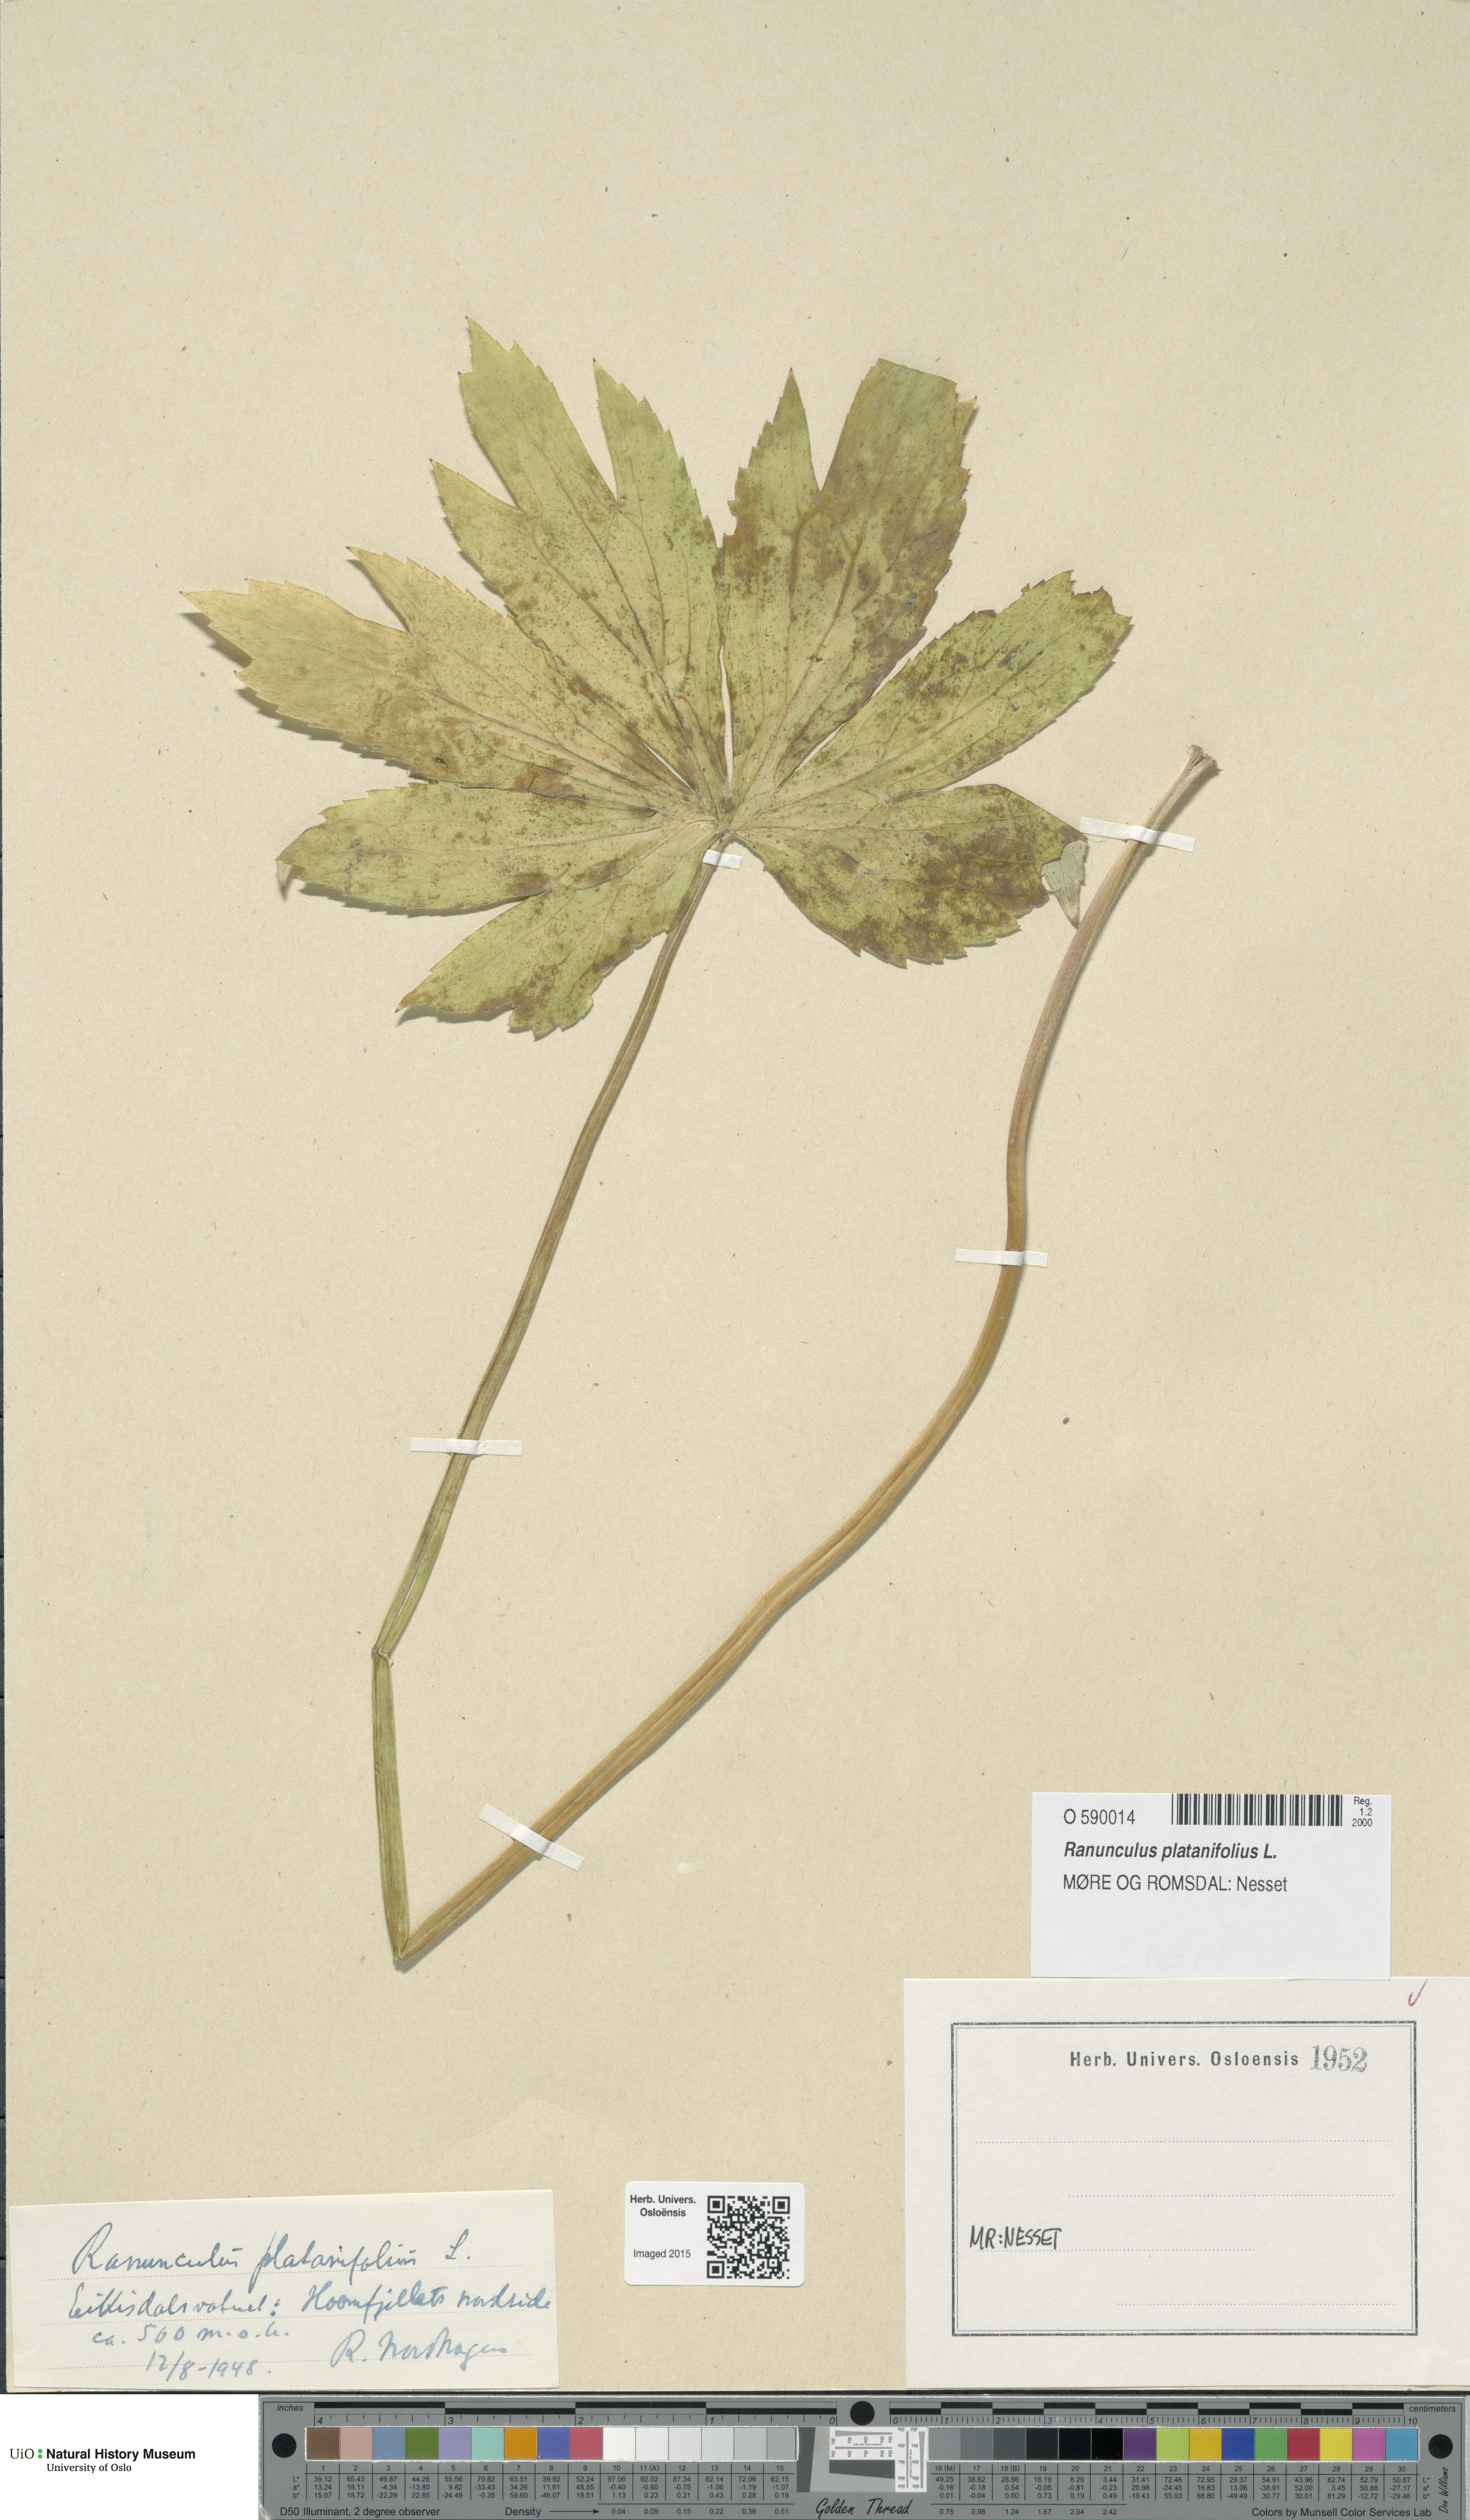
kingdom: Plantae
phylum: Tracheophyta
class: Magnoliopsida
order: Ranunculales
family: Ranunculaceae
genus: Ranunculus
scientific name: Ranunculus platanifolius
